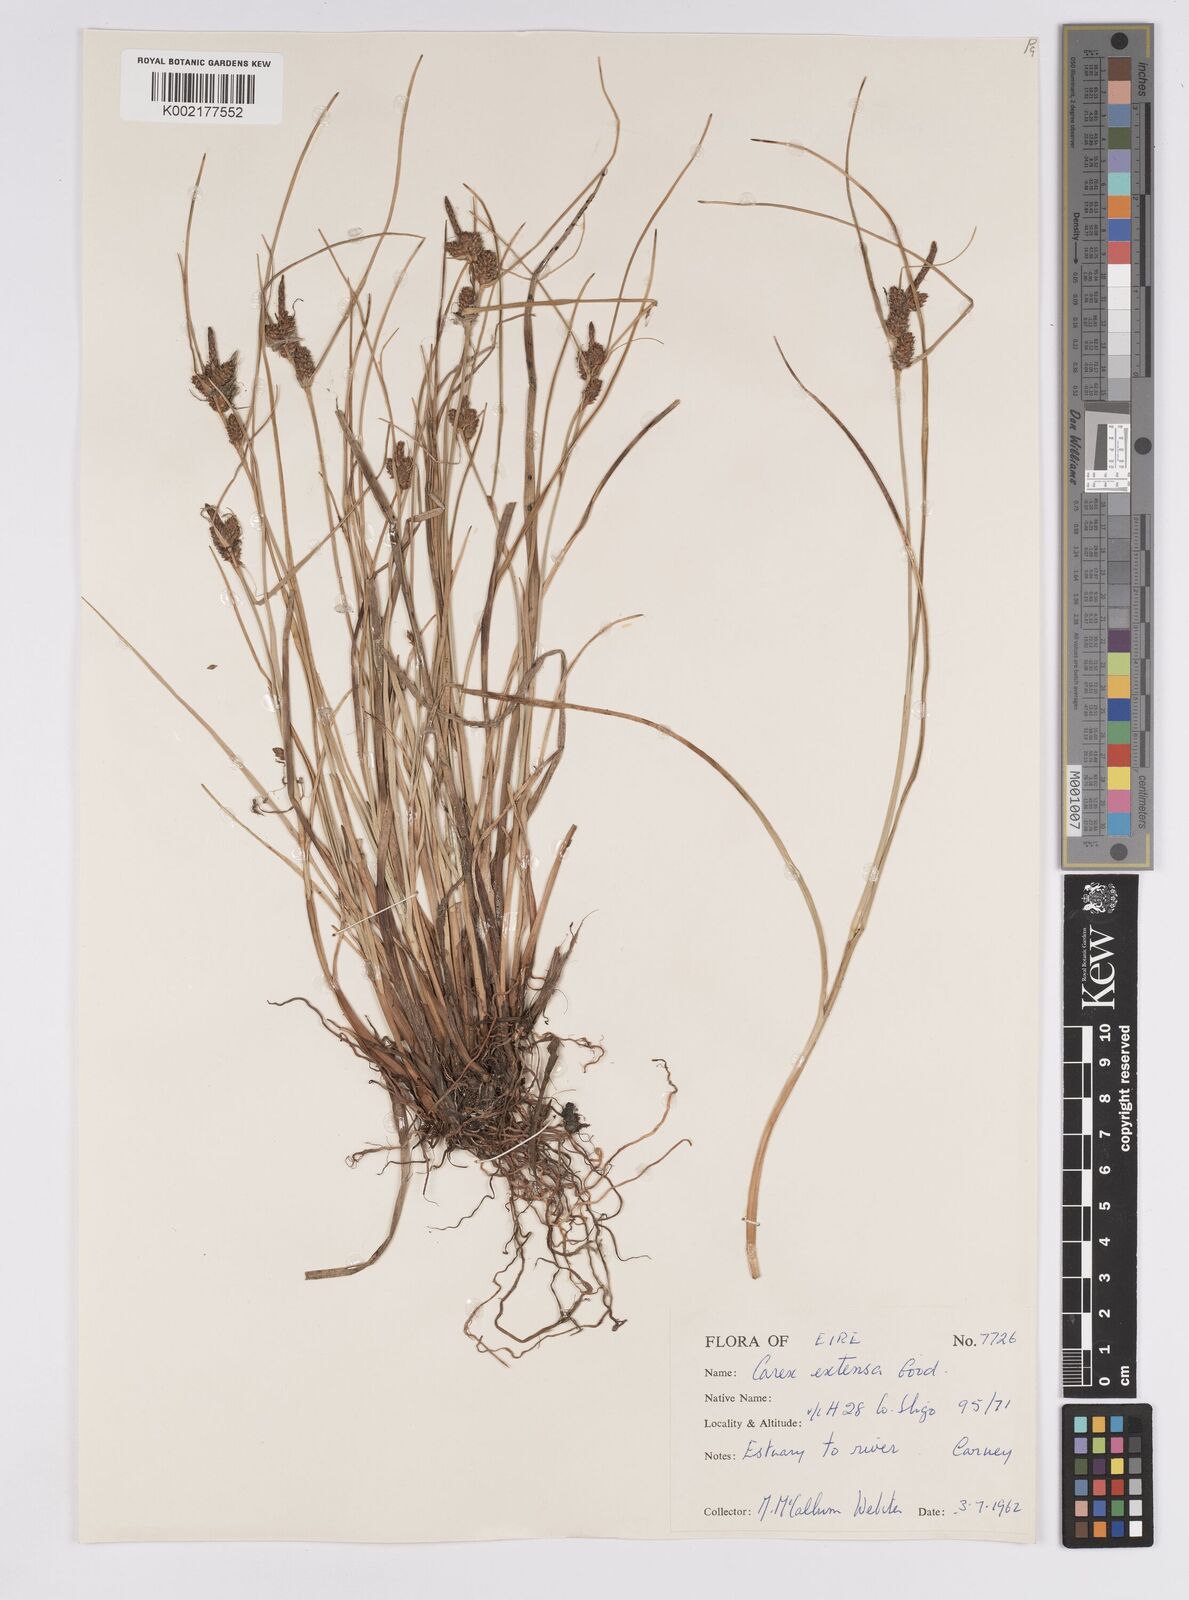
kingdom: Plantae
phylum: Tracheophyta
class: Liliopsida
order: Poales
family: Cyperaceae
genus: Carex
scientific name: Carex extensa
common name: Long-bracted sedge
